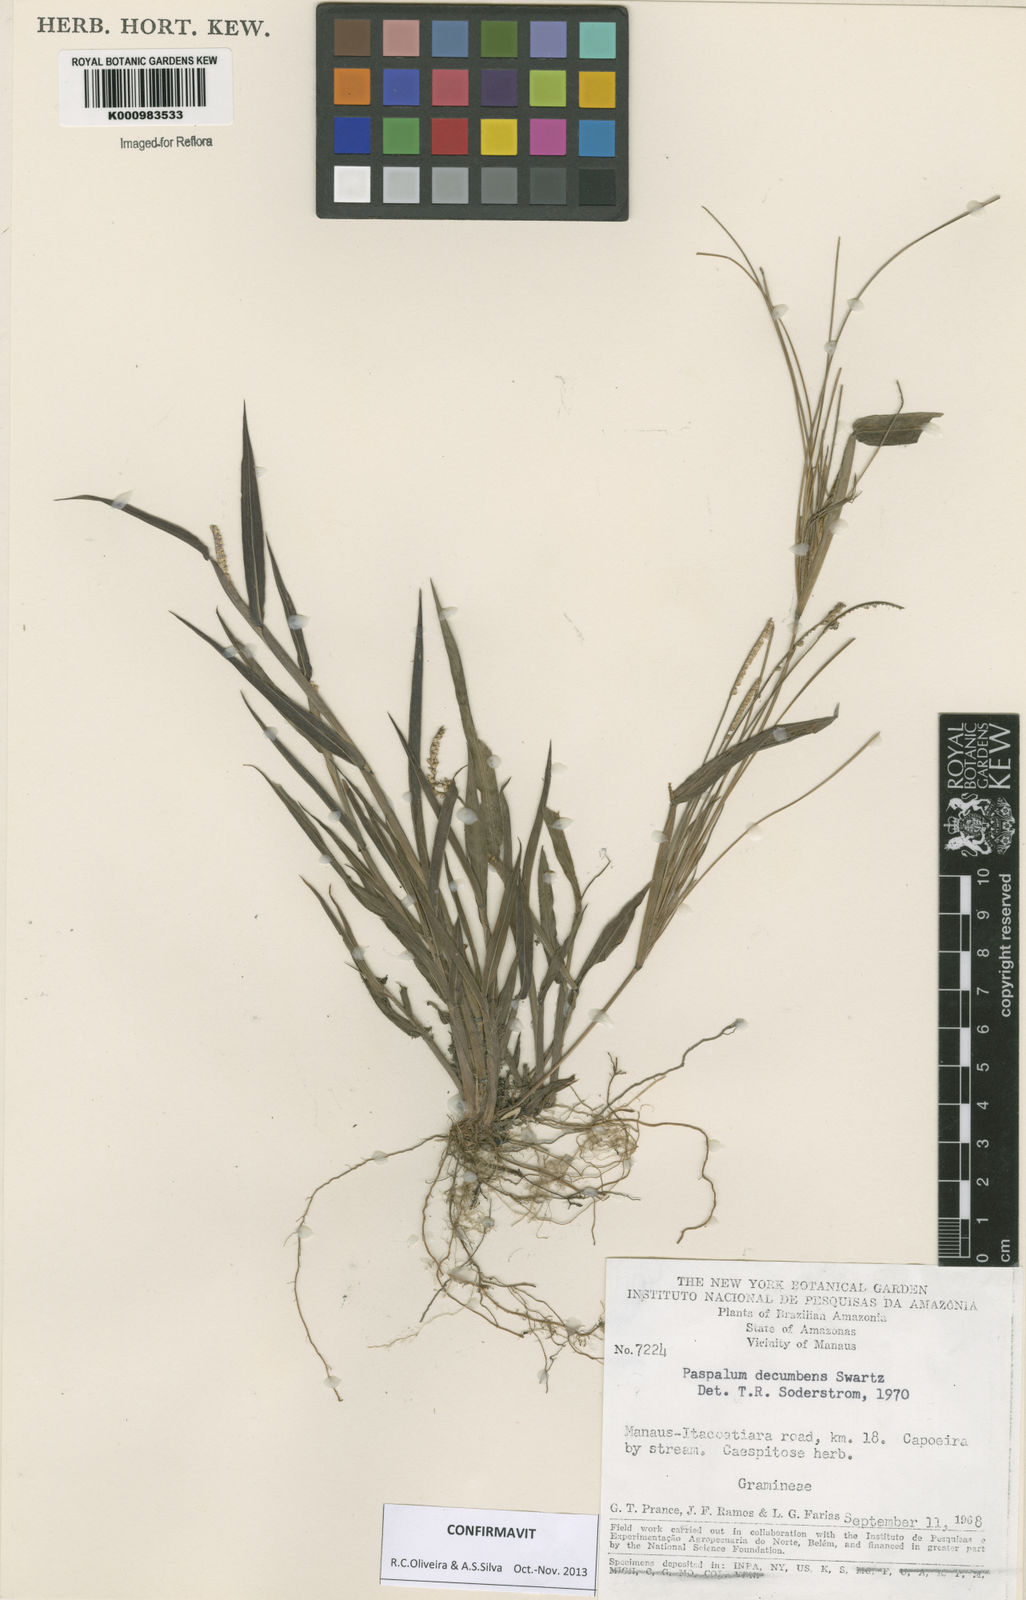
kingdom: Plantae
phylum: Tracheophyta
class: Liliopsida
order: Poales
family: Poaceae
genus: Paspalum
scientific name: Paspalum decumbens
